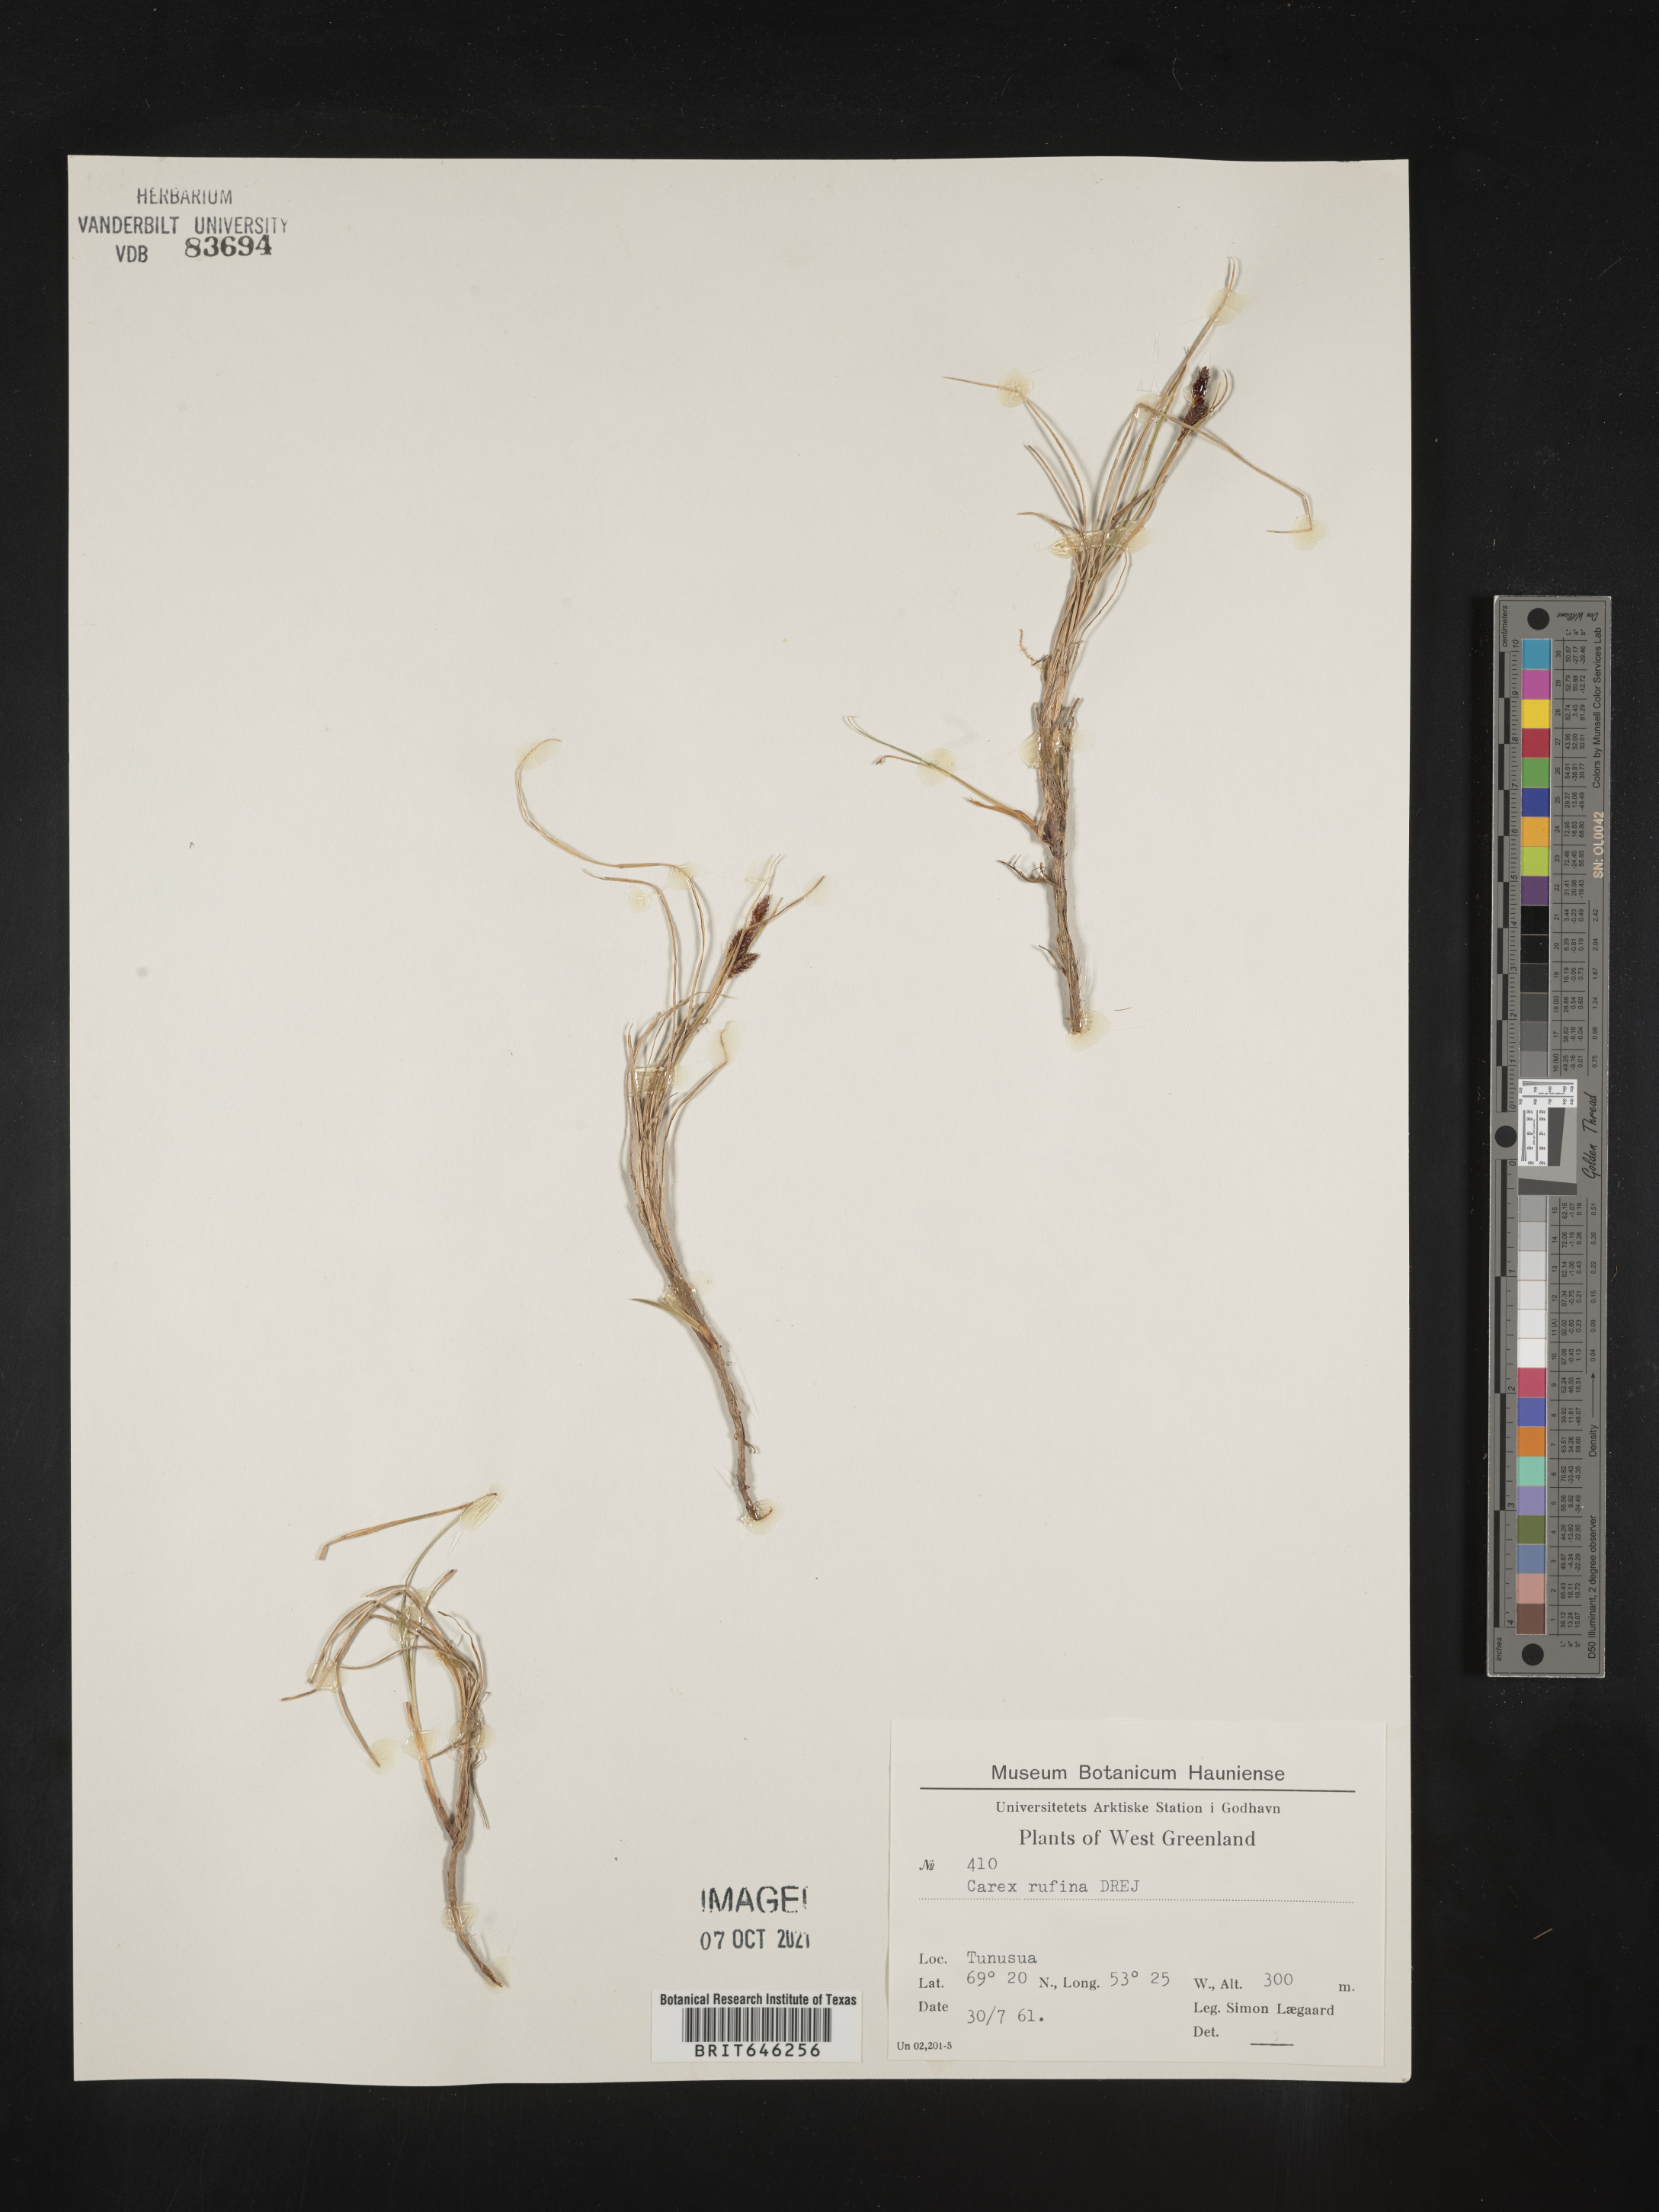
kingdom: Plantae
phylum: Tracheophyta
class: Liliopsida
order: Poales
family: Cyperaceae
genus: Carex
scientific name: Carex rufina
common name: Reddish sedge
